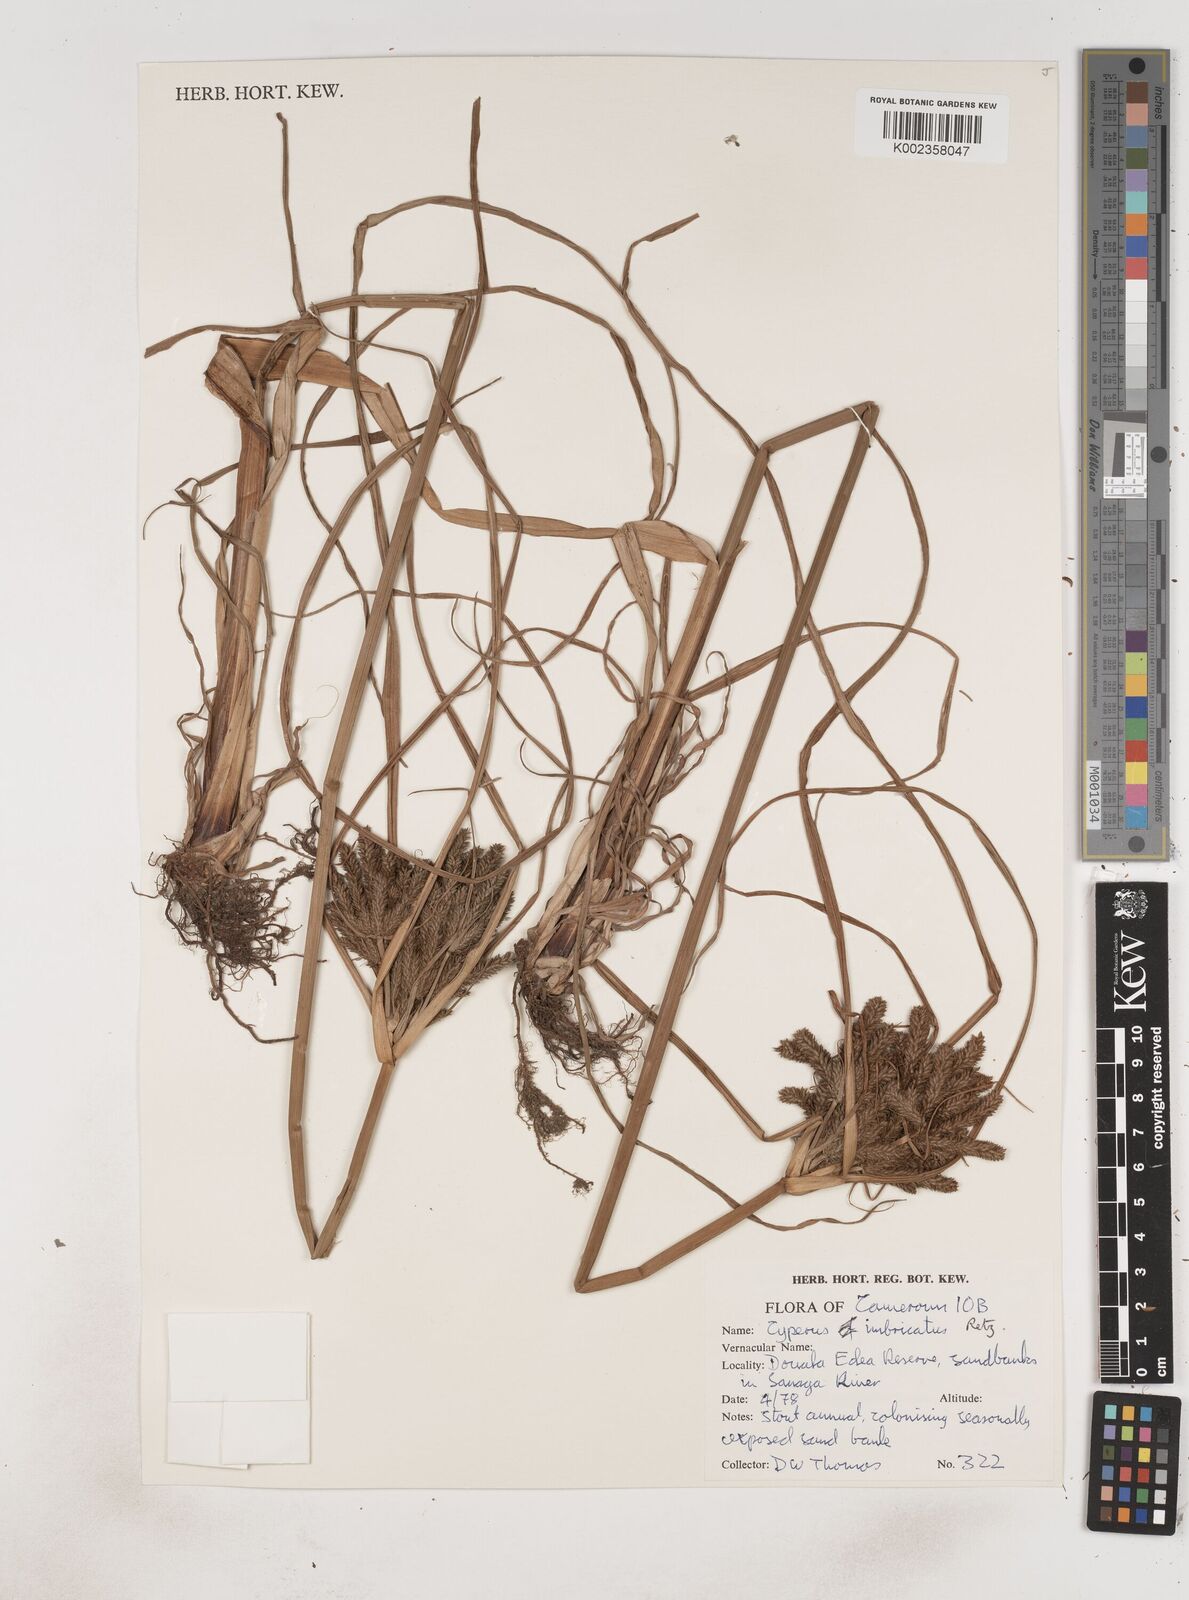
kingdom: Plantae
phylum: Tracheophyta
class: Liliopsida
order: Poales
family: Cyperaceae
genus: Cyperus
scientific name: Cyperus imbricatus
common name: Shingle flatsedge
